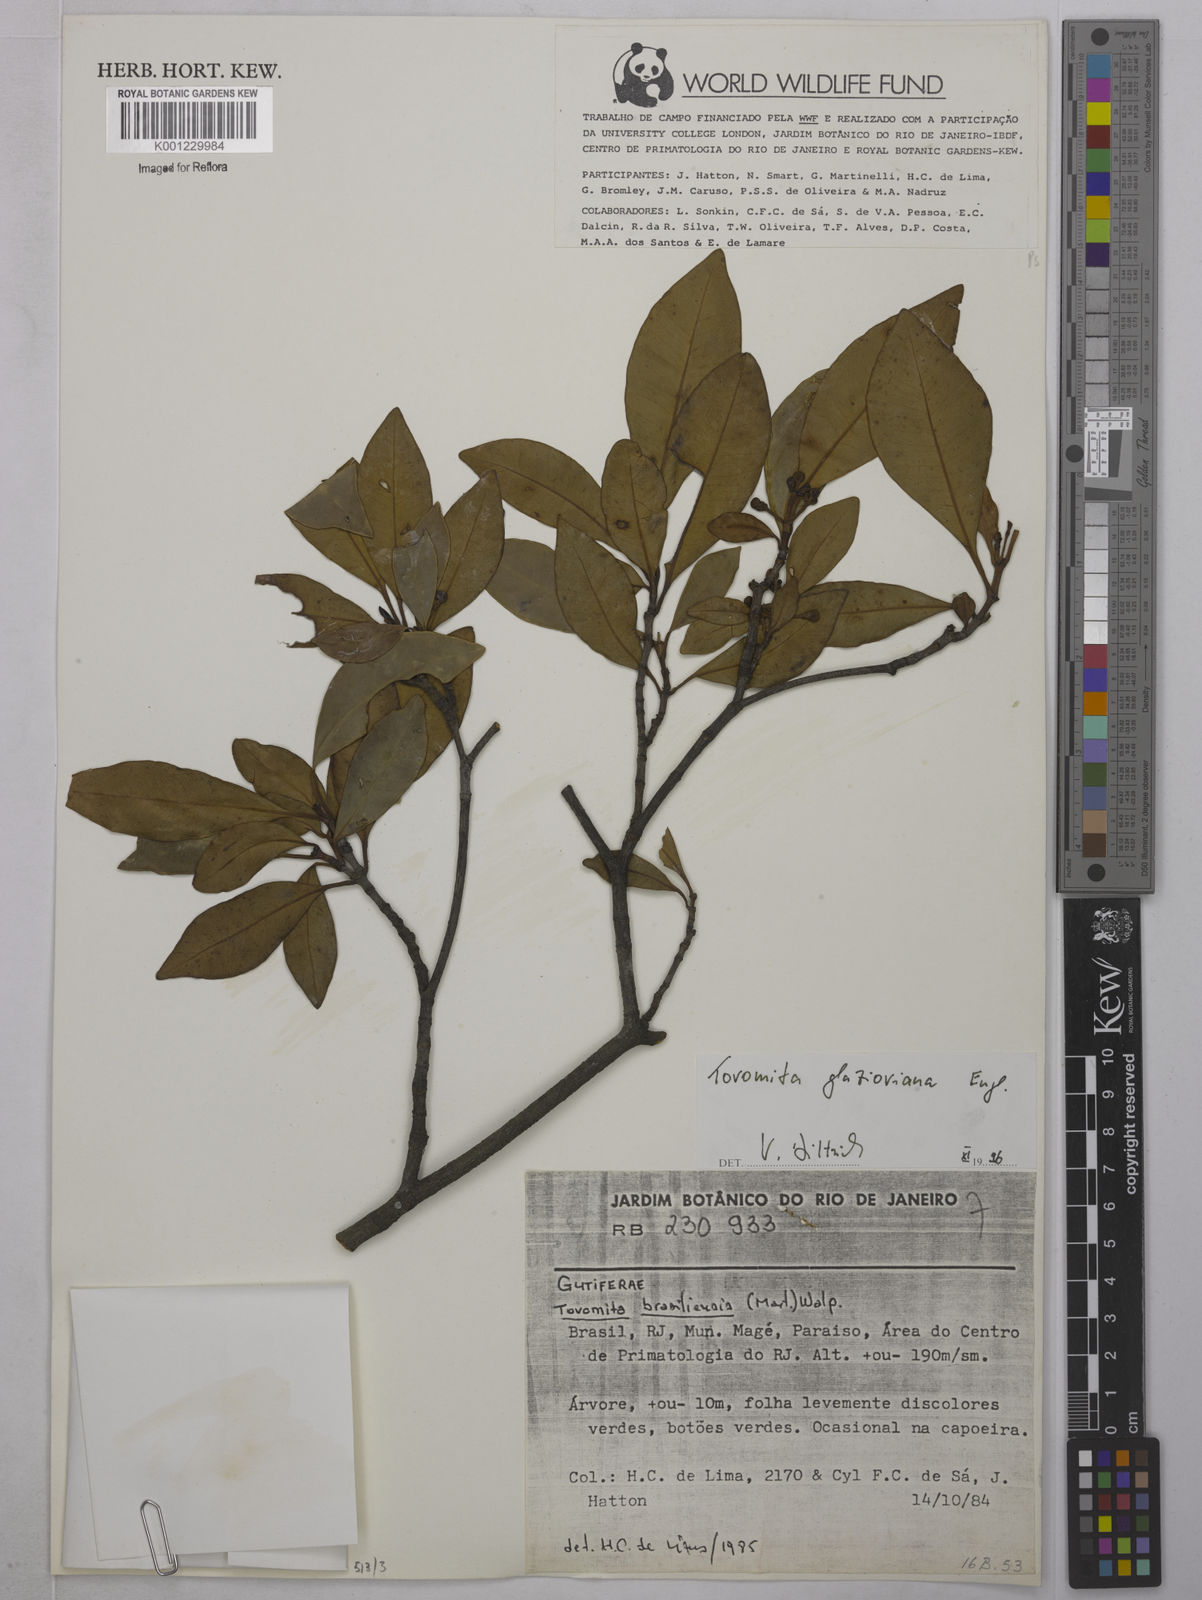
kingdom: Plantae
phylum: Tracheophyta
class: Magnoliopsida
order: Malpighiales
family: Clusiaceae
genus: Tovomita
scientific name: Tovomita glazioviana
